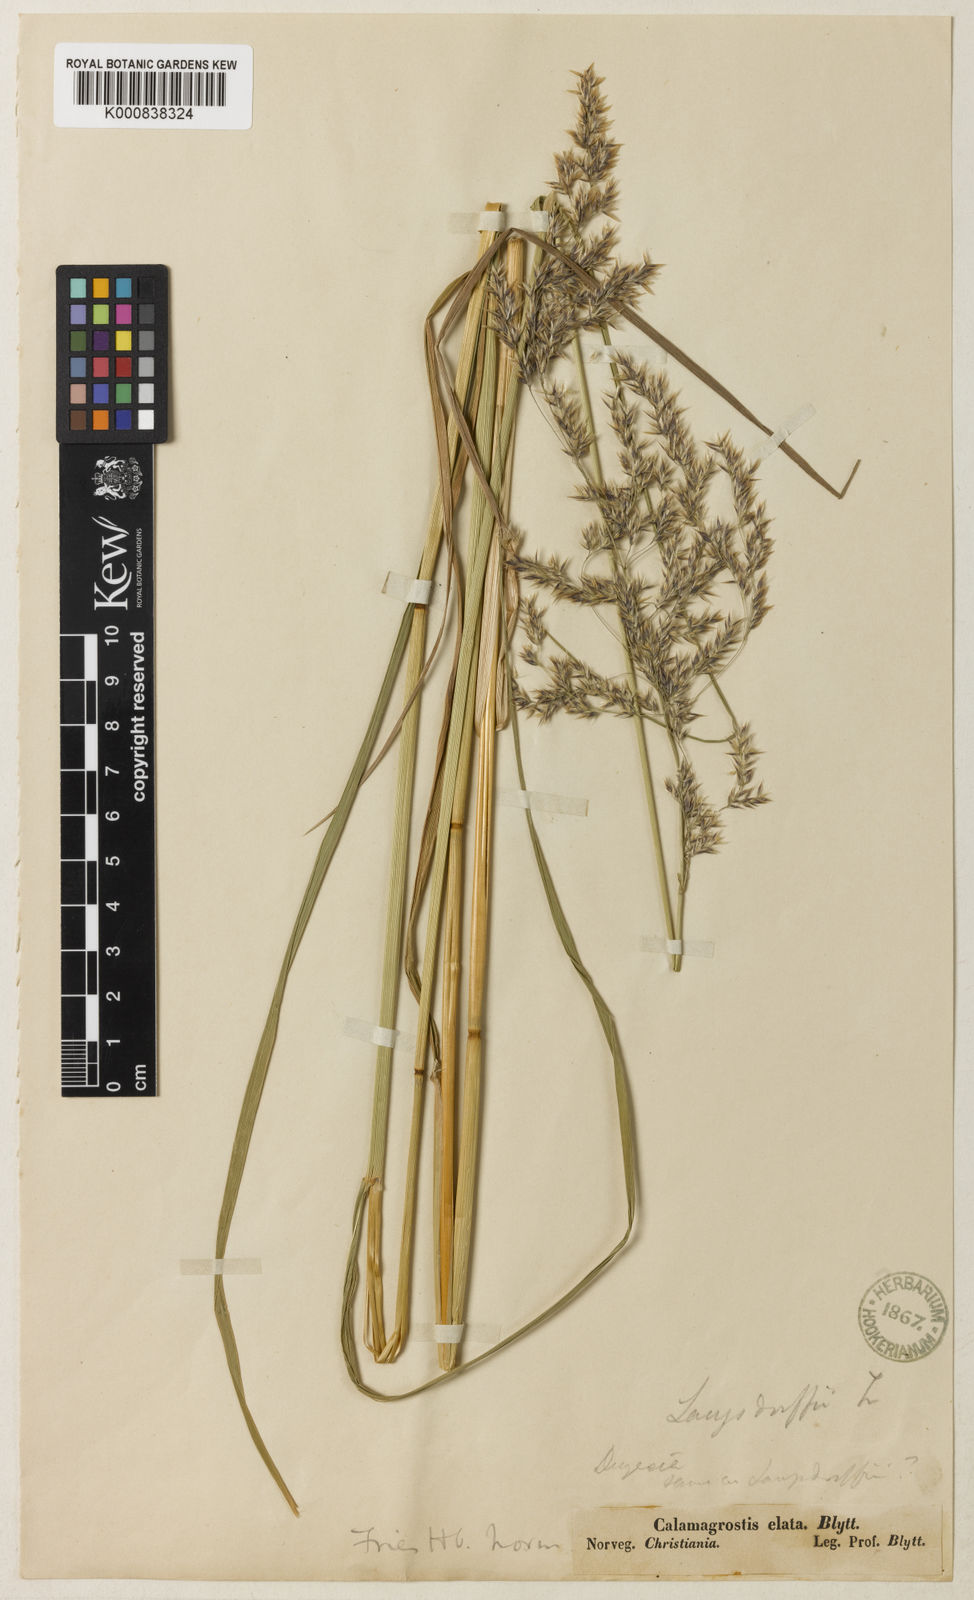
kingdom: Plantae
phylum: Tracheophyta
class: Liliopsida
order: Poales
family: Poaceae
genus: Calamagrostis
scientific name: Calamagrostis purpurea
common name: Scandinavian small-reed
